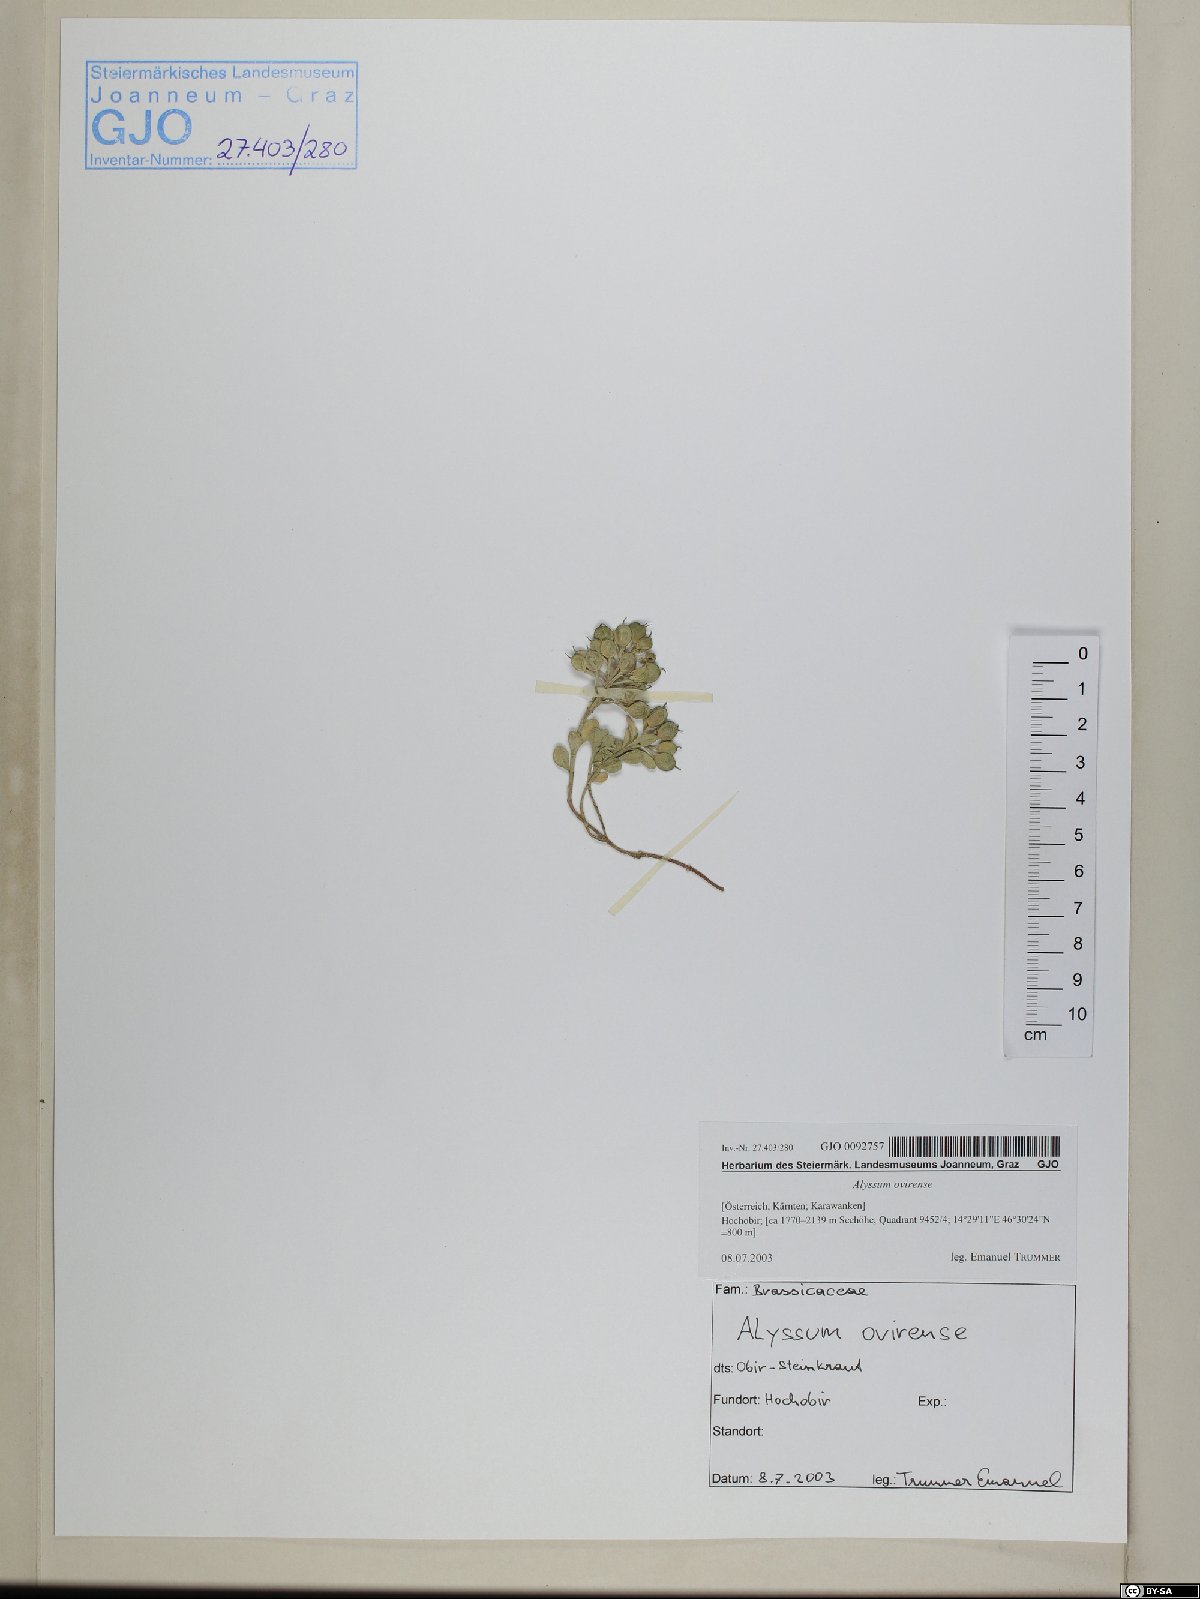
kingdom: Plantae
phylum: Tracheophyta
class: Magnoliopsida
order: Brassicales
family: Brassicaceae
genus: Alyssum
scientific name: Alyssum wulfenianum
